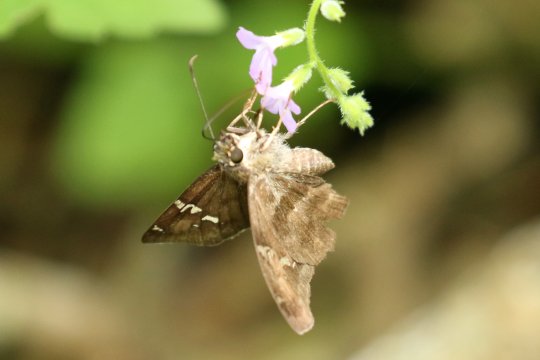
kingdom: Animalia
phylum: Arthropoda
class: Insecta
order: Lepidoptera
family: Hesperiidae
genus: Cabares
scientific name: Cabares potrillo
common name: Potrillo Skipper
